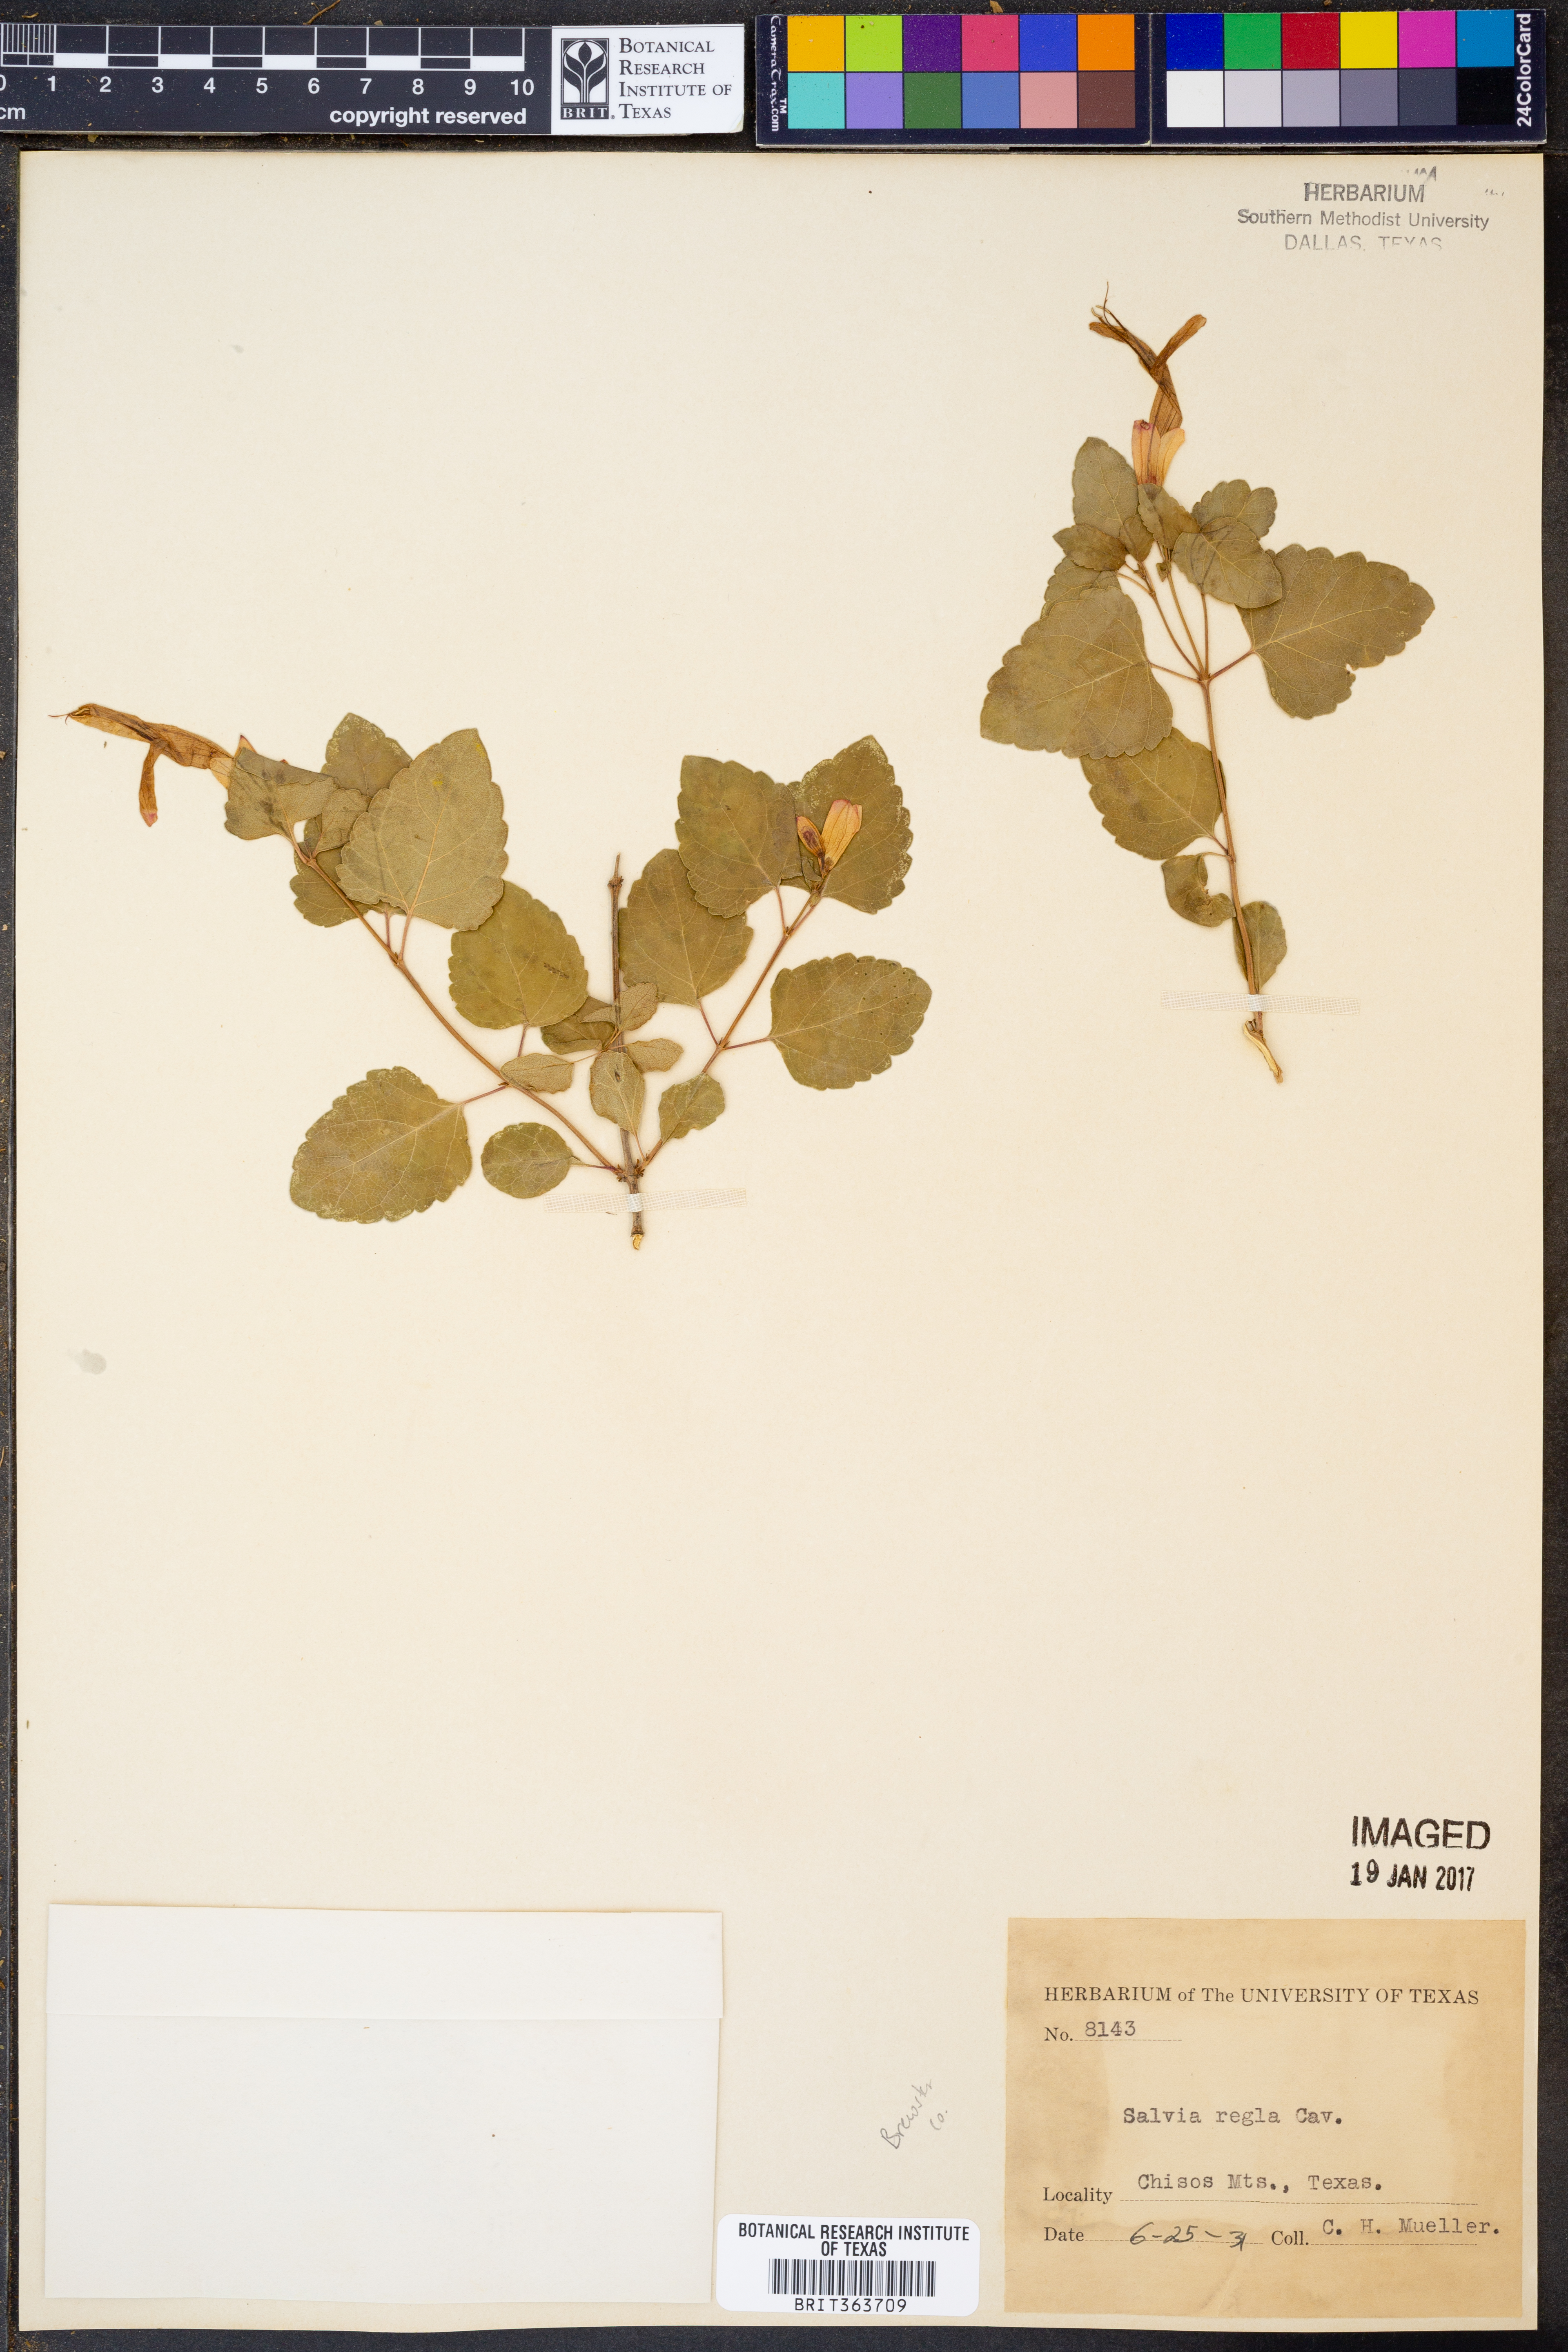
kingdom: Plantae
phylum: Tracheophyta
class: Magnoliopsida
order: Lamiales
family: Lamiaceae
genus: Salvia
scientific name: Salvia regla
